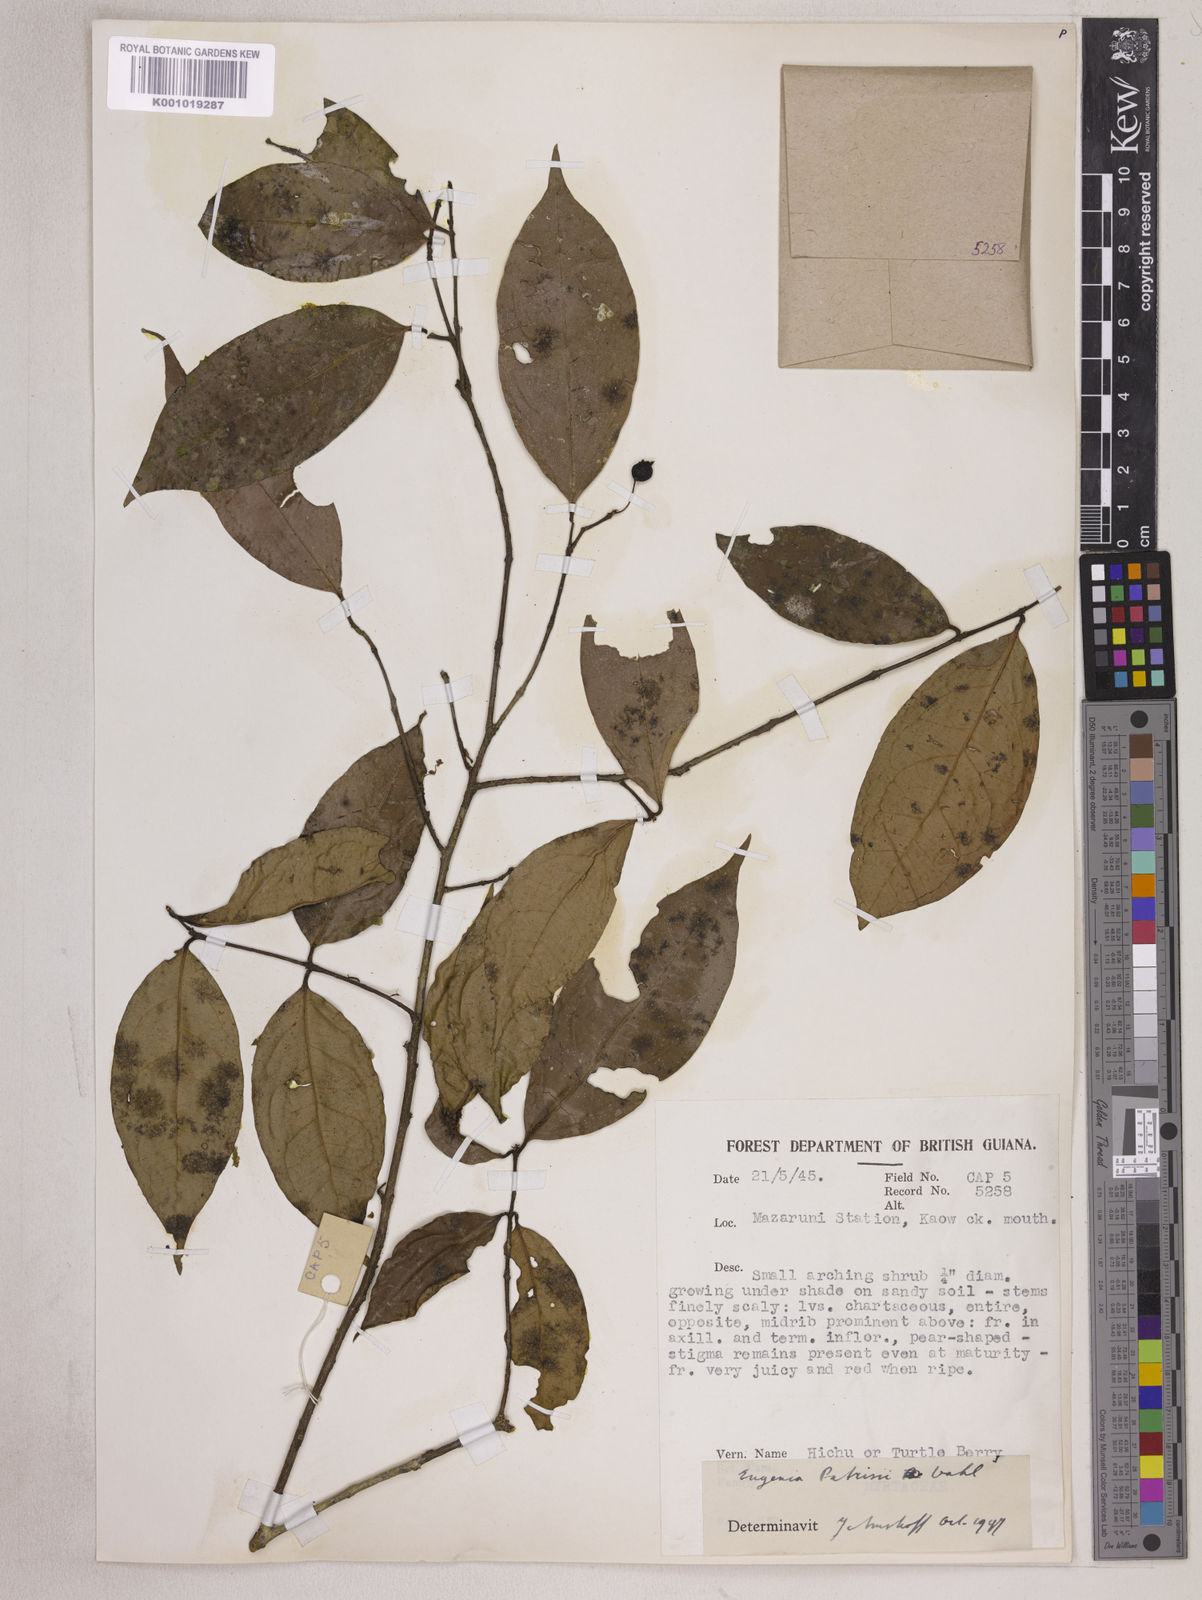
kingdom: Plantae
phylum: Tracheophyta
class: Magnoliopsida
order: Myrtales
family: Myrtaceae
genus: Eugenia
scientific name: Eugenia patrisii
